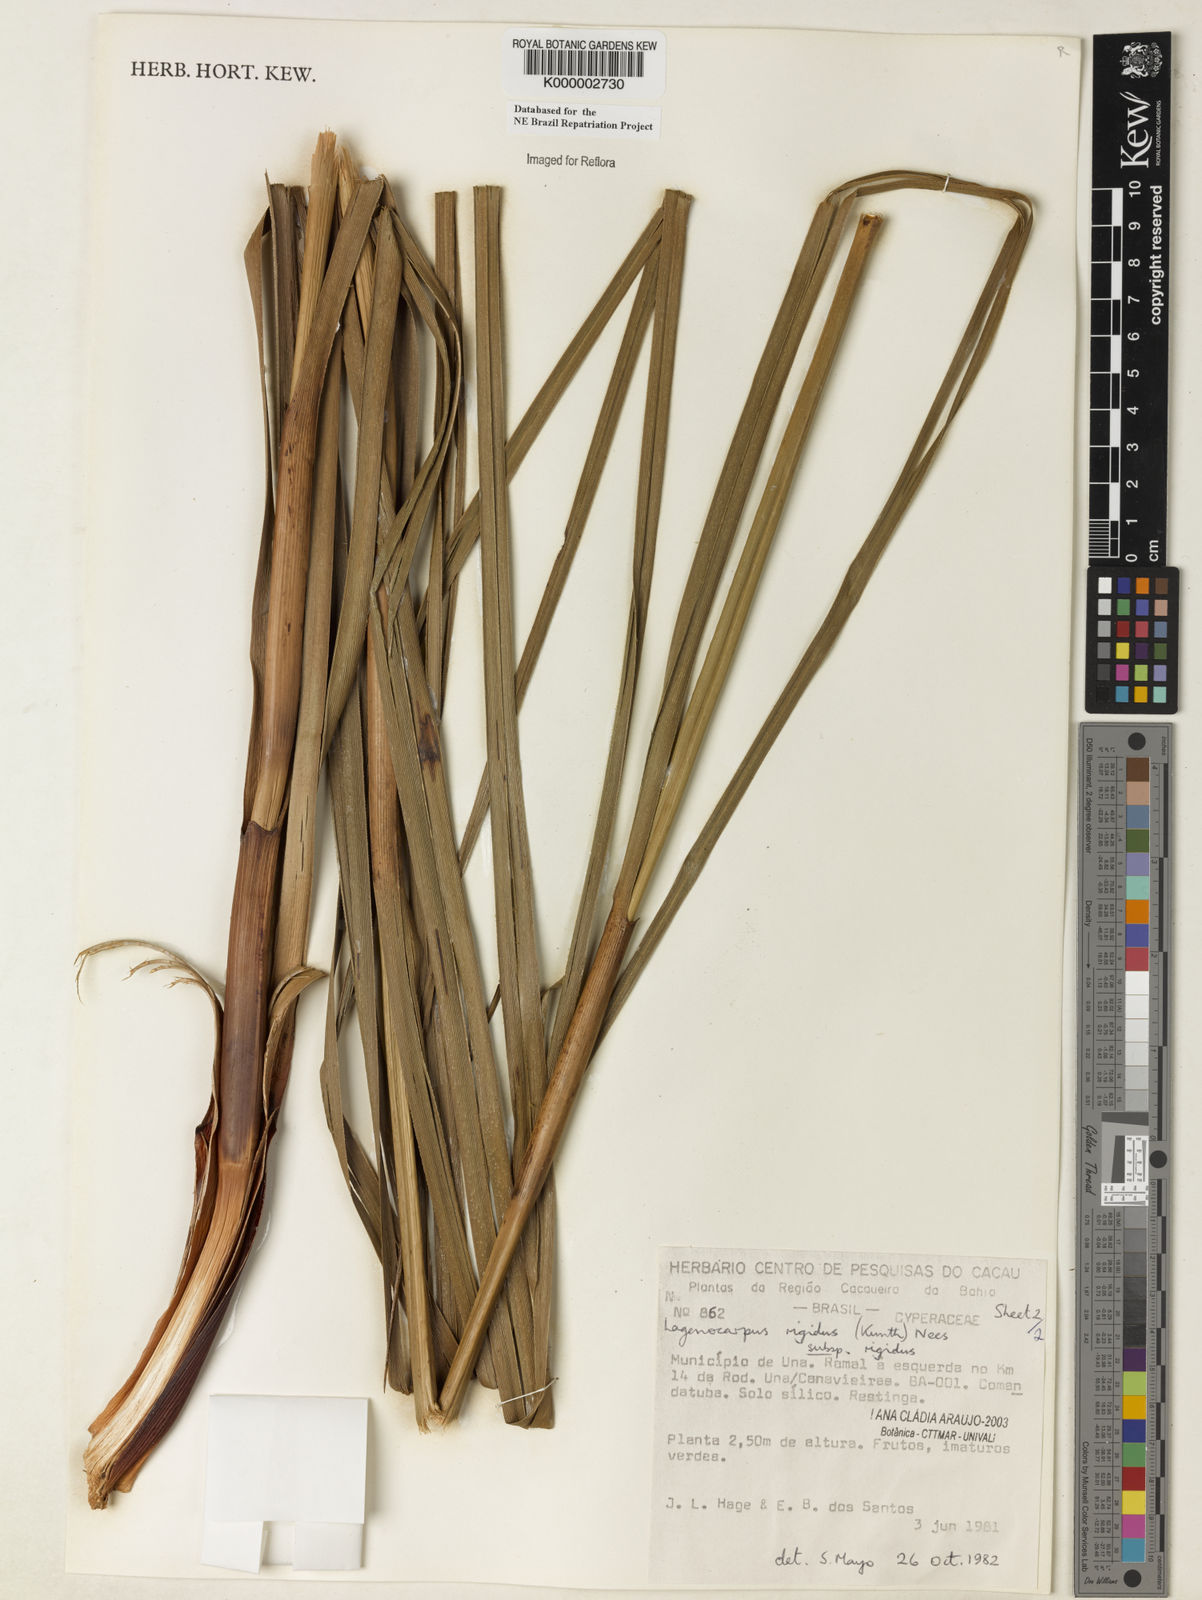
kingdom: Plantae
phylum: Tracheophyta
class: Liliopsida
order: Poales
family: Cyperaceae
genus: Lagenocarpus
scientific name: Lagenocarpus rigidus
